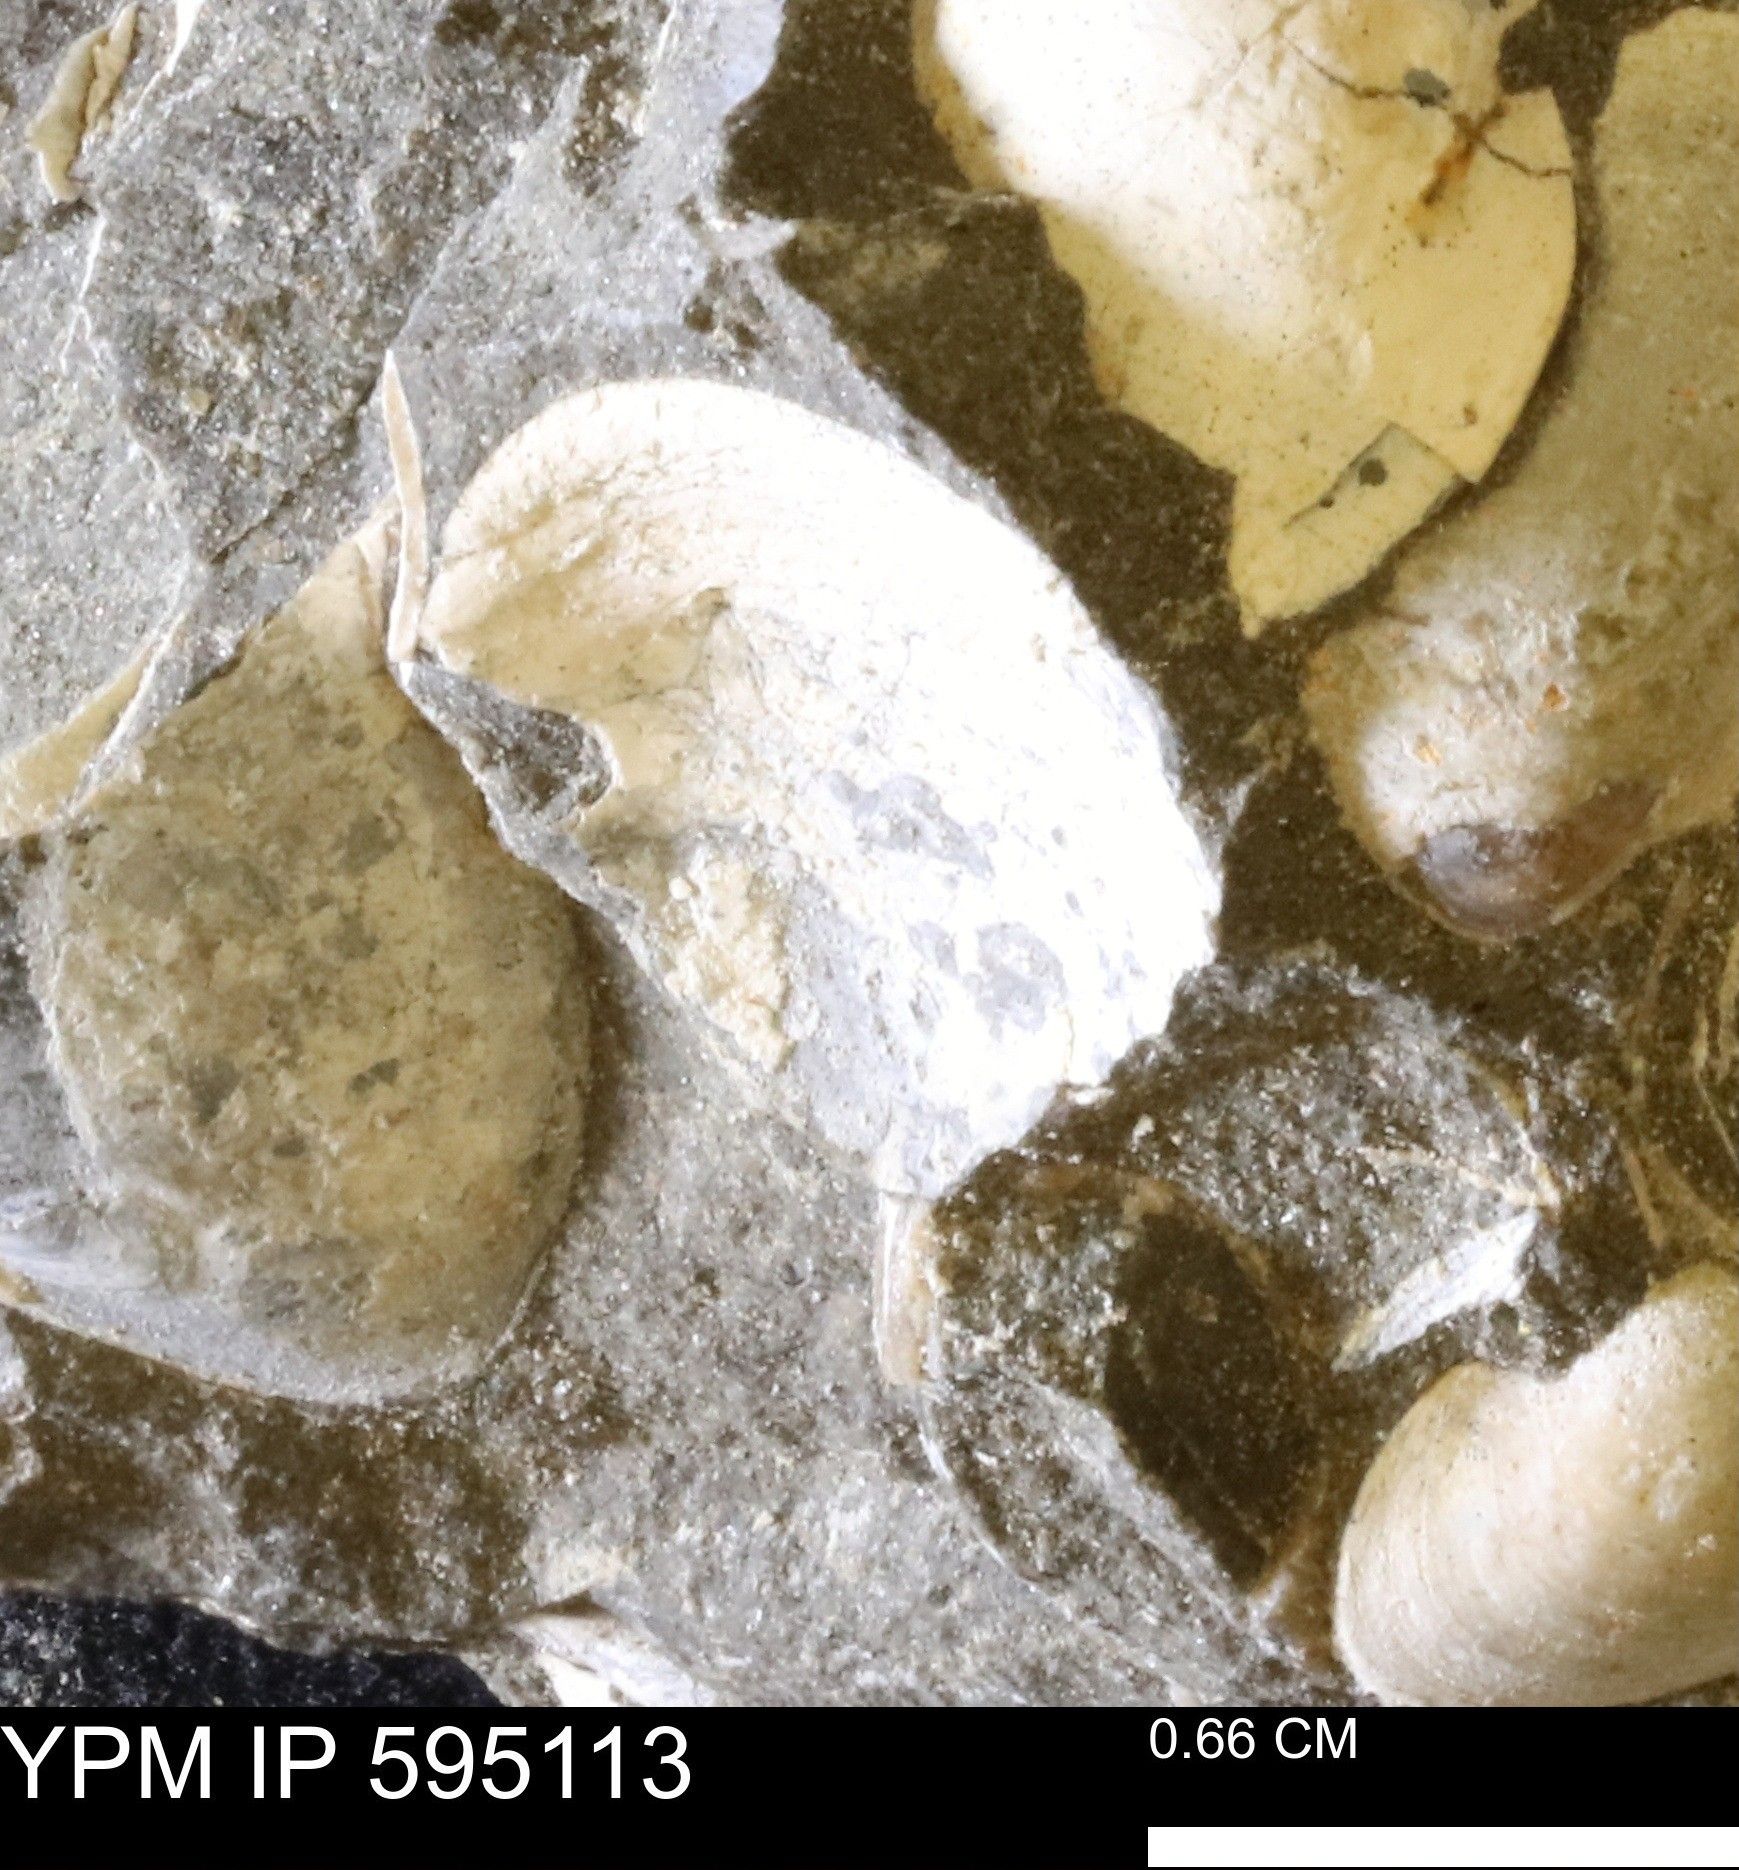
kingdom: Animalia
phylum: Mollusca
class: Bivalvia
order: Cardiida
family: Cardiidae
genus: Protocardia
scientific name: Protocardia
